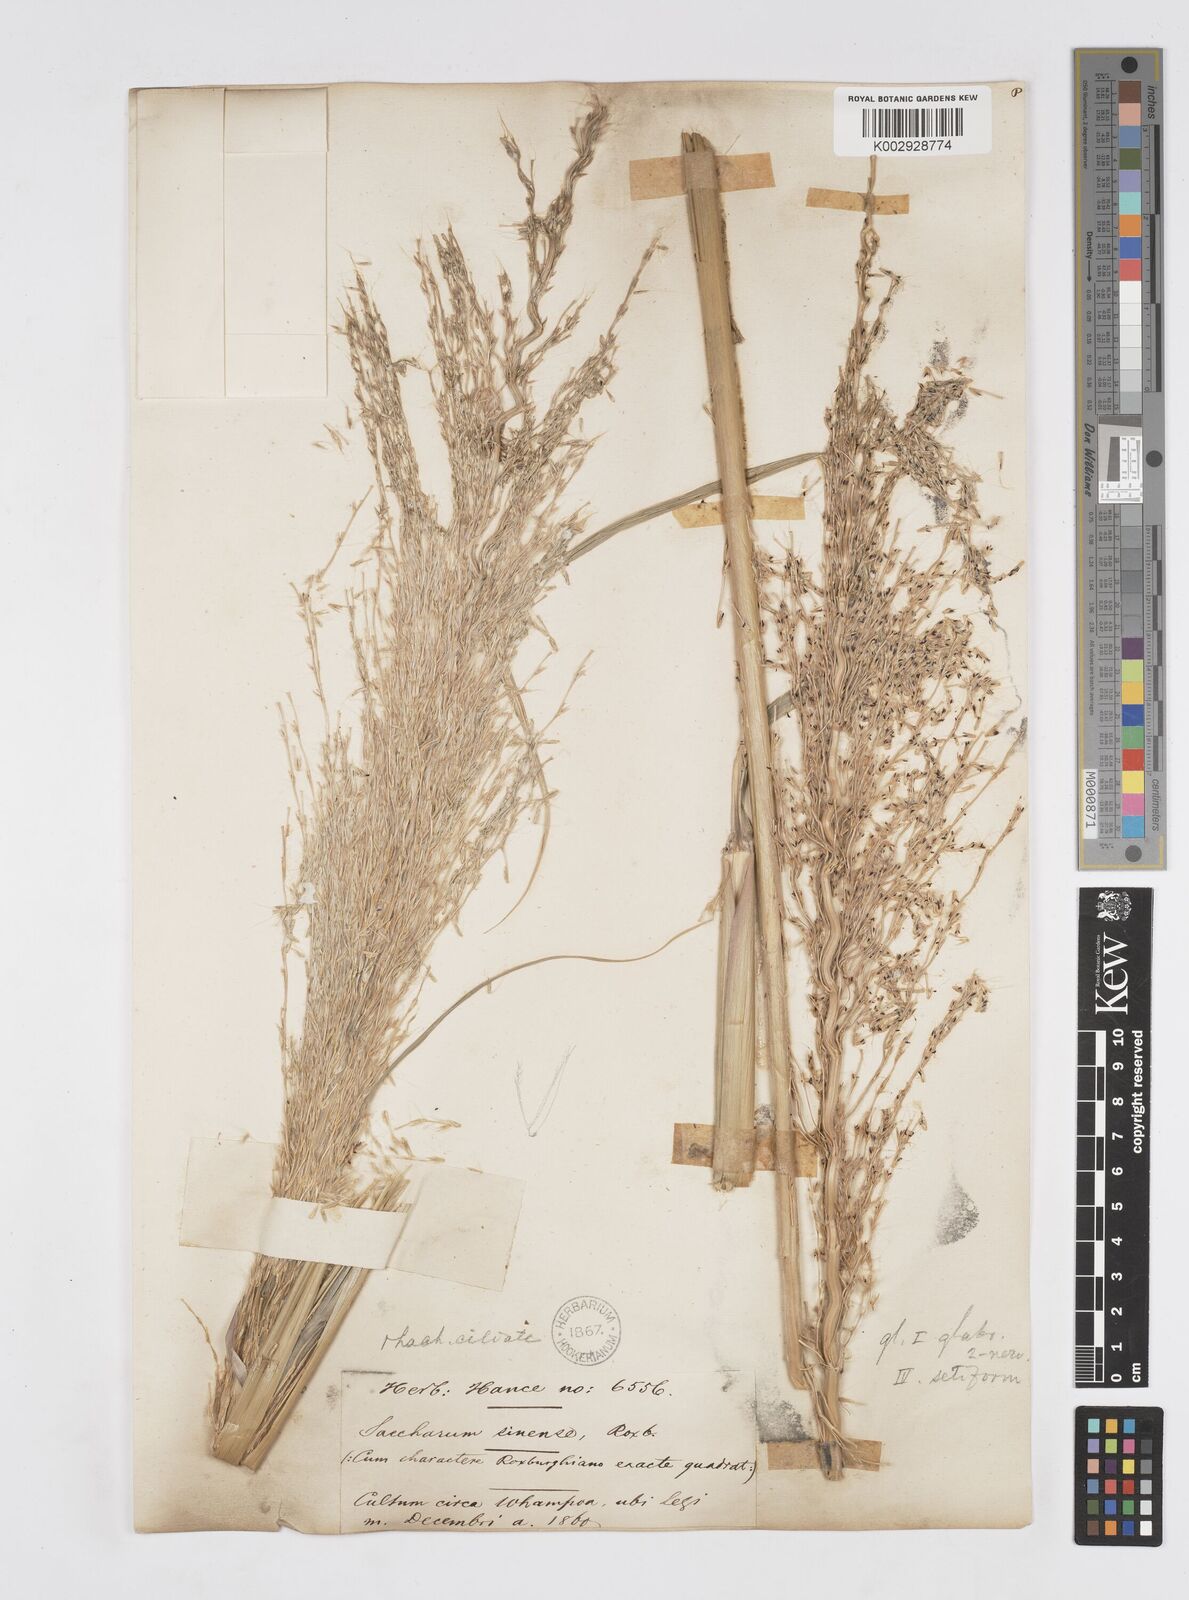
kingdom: Plantae
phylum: Tracheophyta
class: Liliopsida
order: Poales
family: Poaceae
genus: Saccharum
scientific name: Saccharum officinarum
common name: Sugarcane
